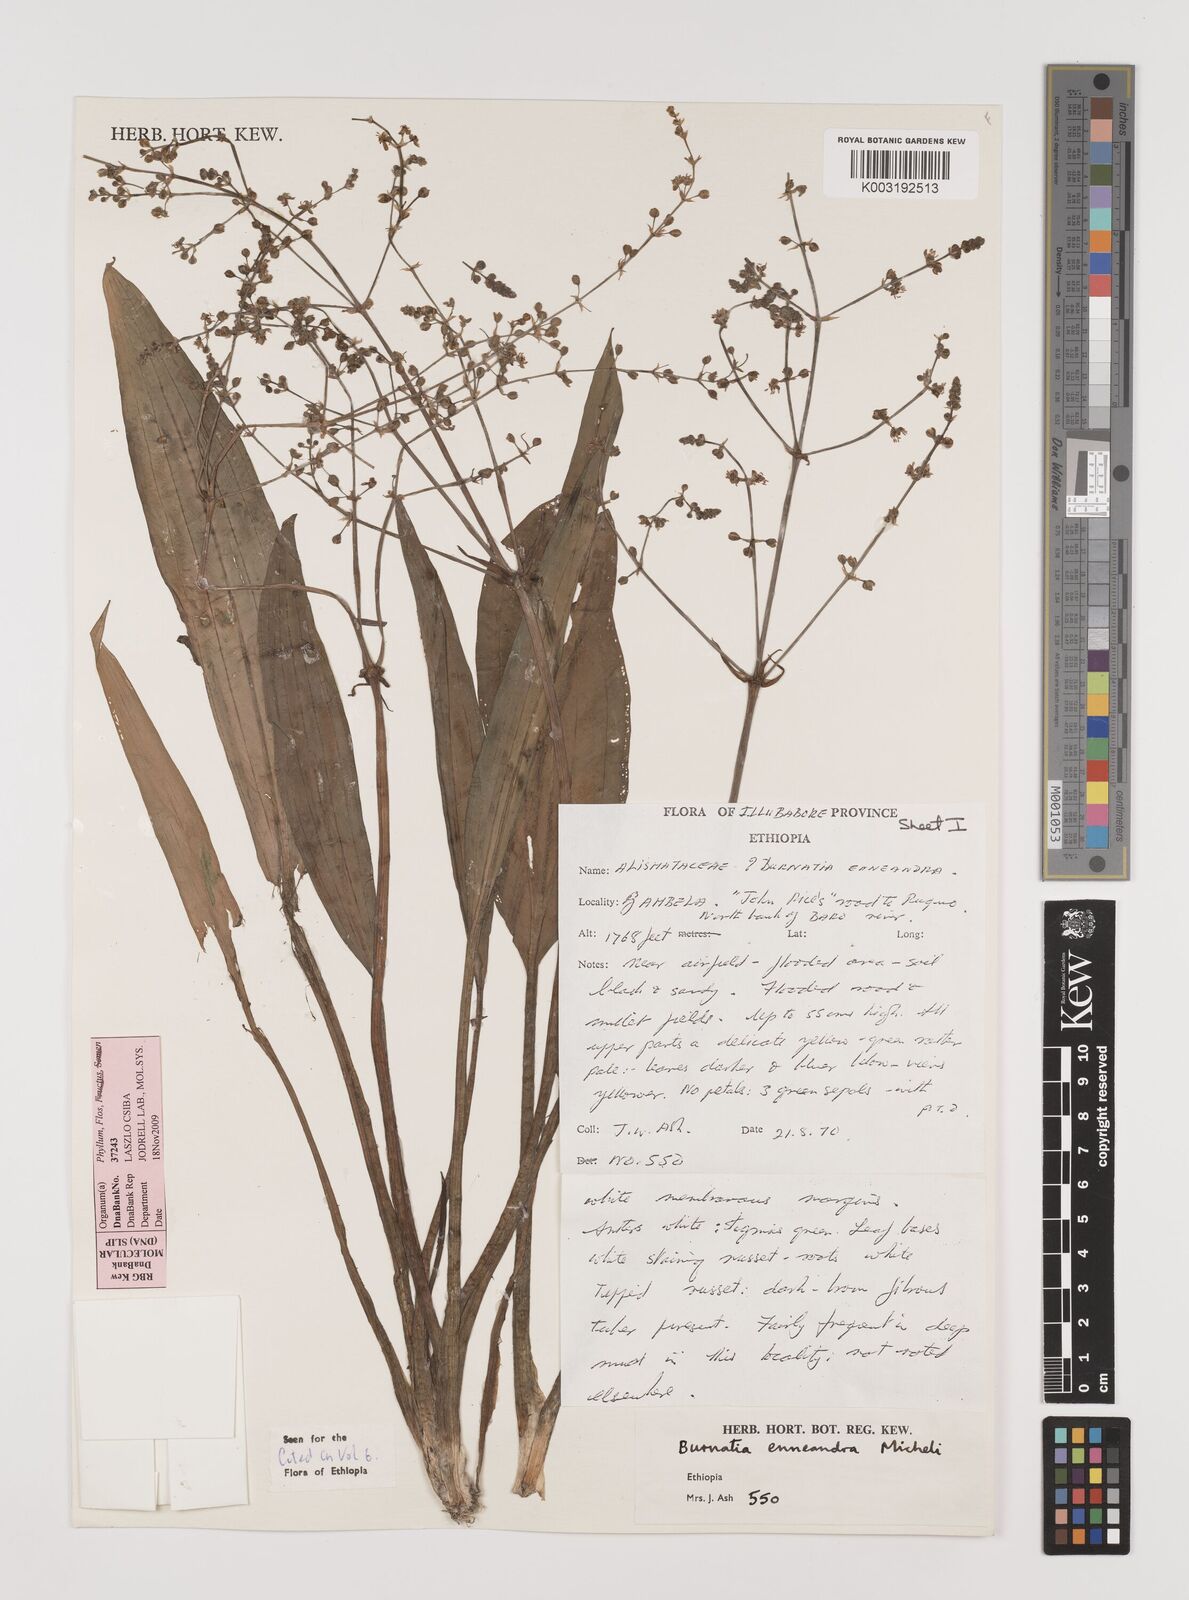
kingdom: Plantae
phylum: Tracheophyta
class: Liliopsida
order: Alismatales
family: Alismataceae
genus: Burnatia
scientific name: Burnatia enneandra
